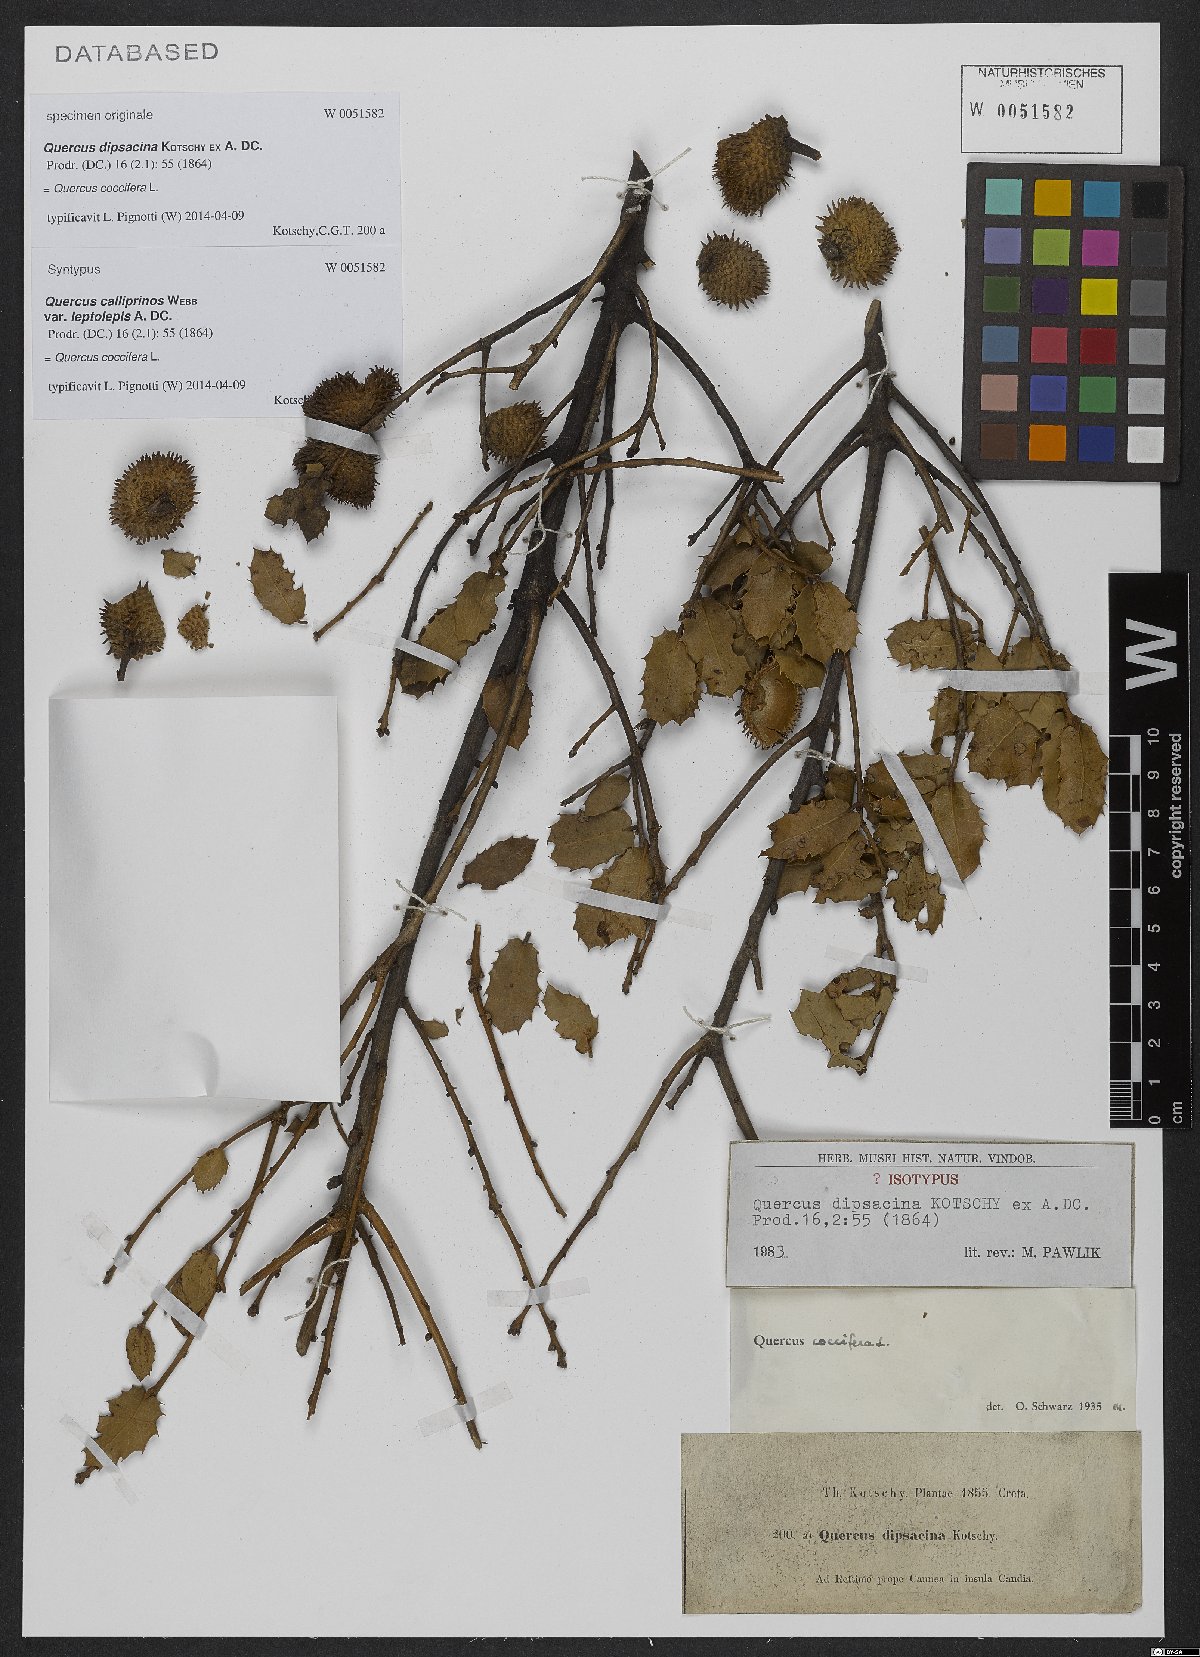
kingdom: Plantae
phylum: Tracheophyta
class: Magnoliopsida
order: Fagales
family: Fagaceae
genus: Quercus
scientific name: Quercus coccifera
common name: Kermes oak
